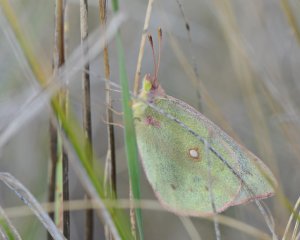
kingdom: Animalia
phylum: Arthropoda
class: Insecta
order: Lepidoptera
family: Pieridae
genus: Colias
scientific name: Colias philodice
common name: Clouded Sulphur
